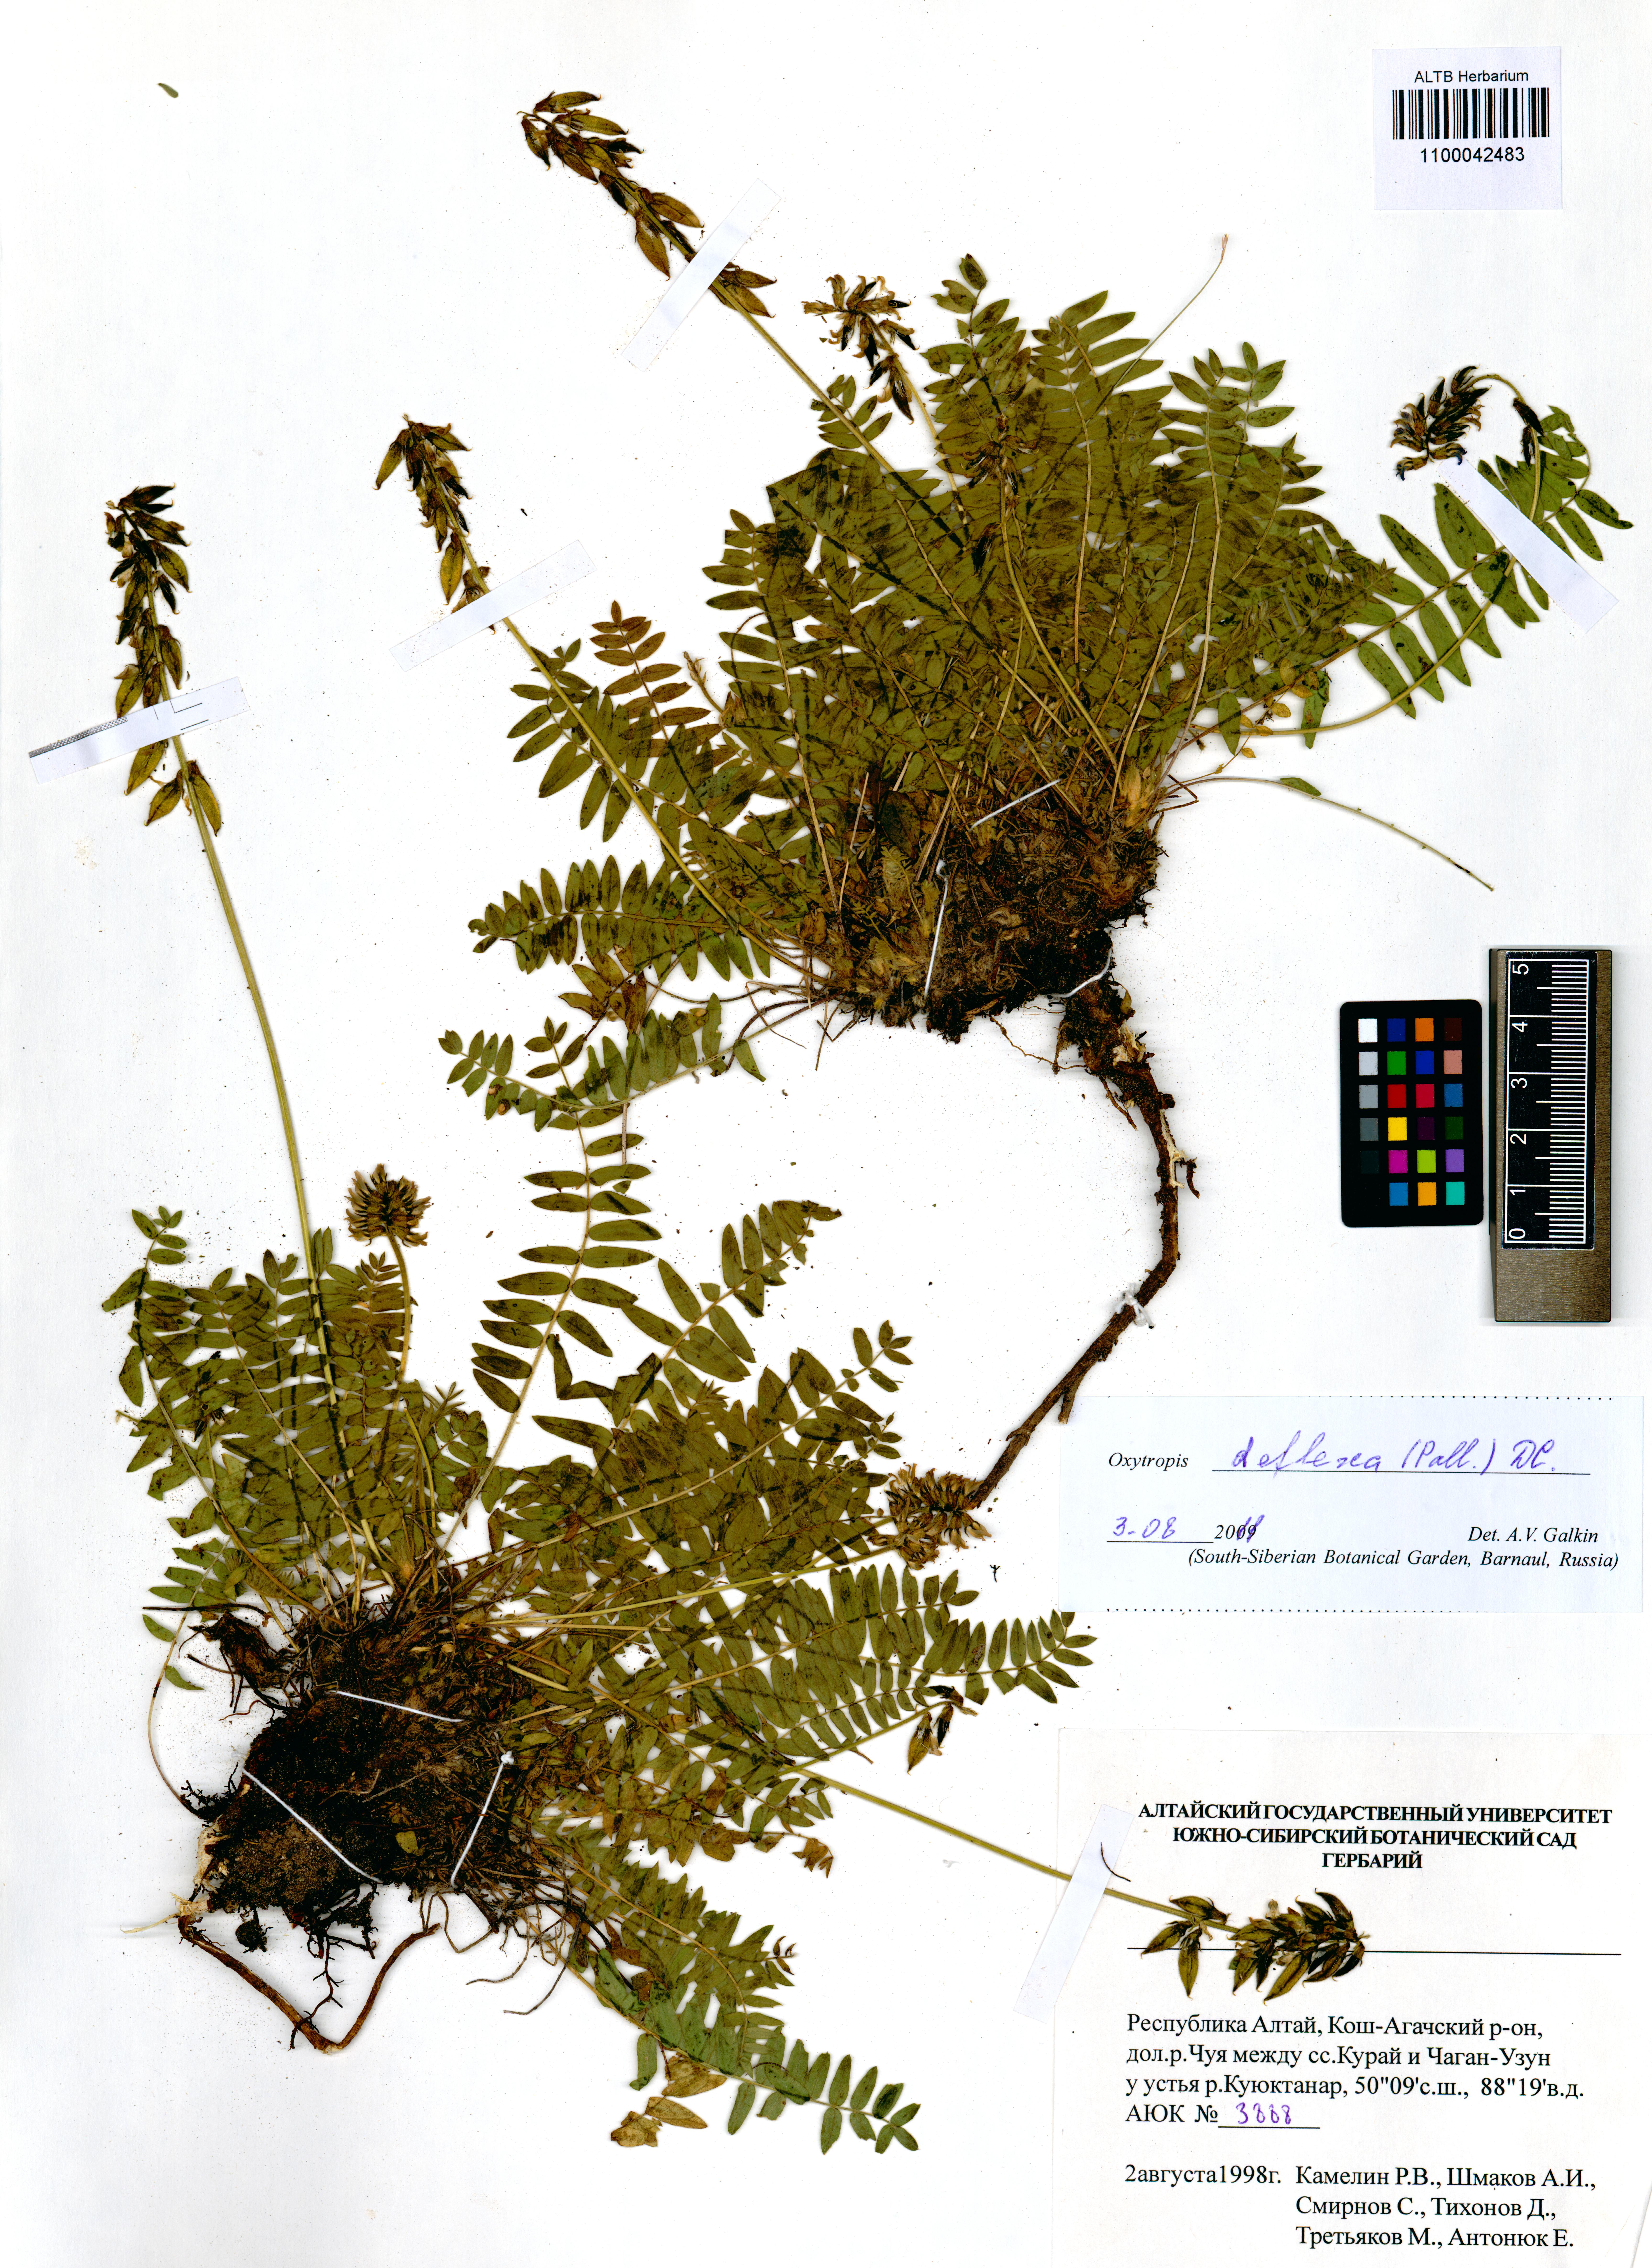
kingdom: Plantae
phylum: Tracheophyta
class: Magnoliopsida
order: Fabales
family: Fabaceae
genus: Oxytropis
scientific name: Oxytropis deflexa
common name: Stemmed oxytrope
